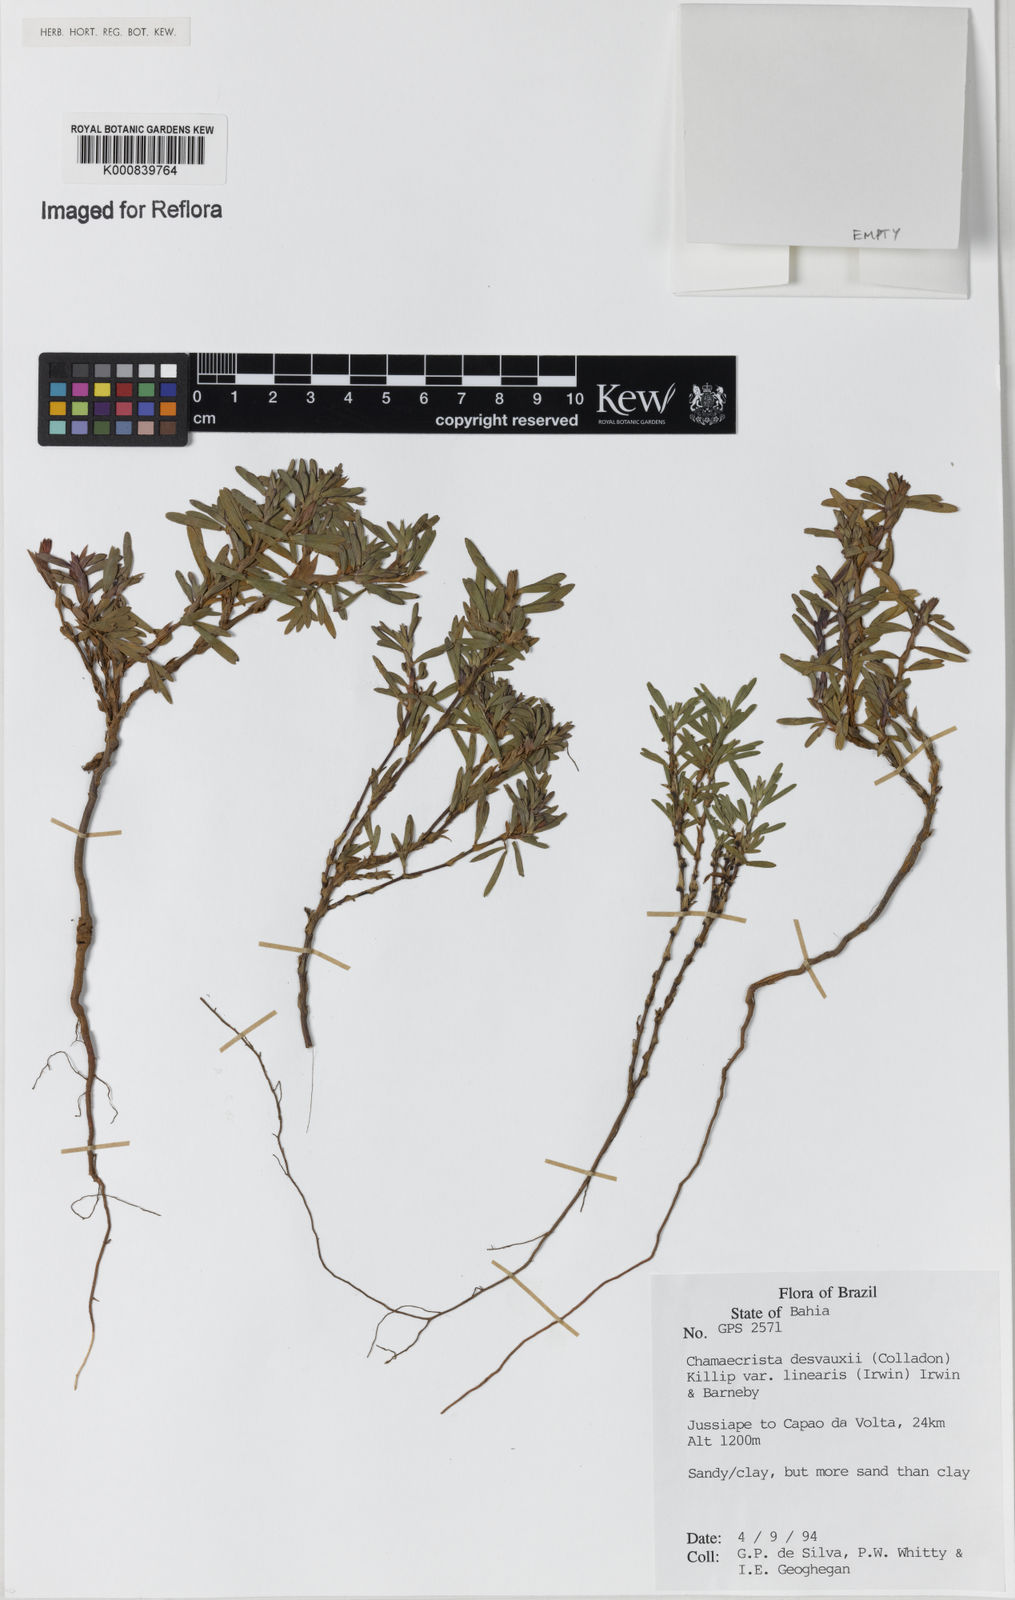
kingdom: Plantae
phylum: Tracheophyta
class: Magnoliopsida
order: Fabales
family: Fabaceae
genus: Chamaecrista
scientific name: Chamaecrista desvauxii
